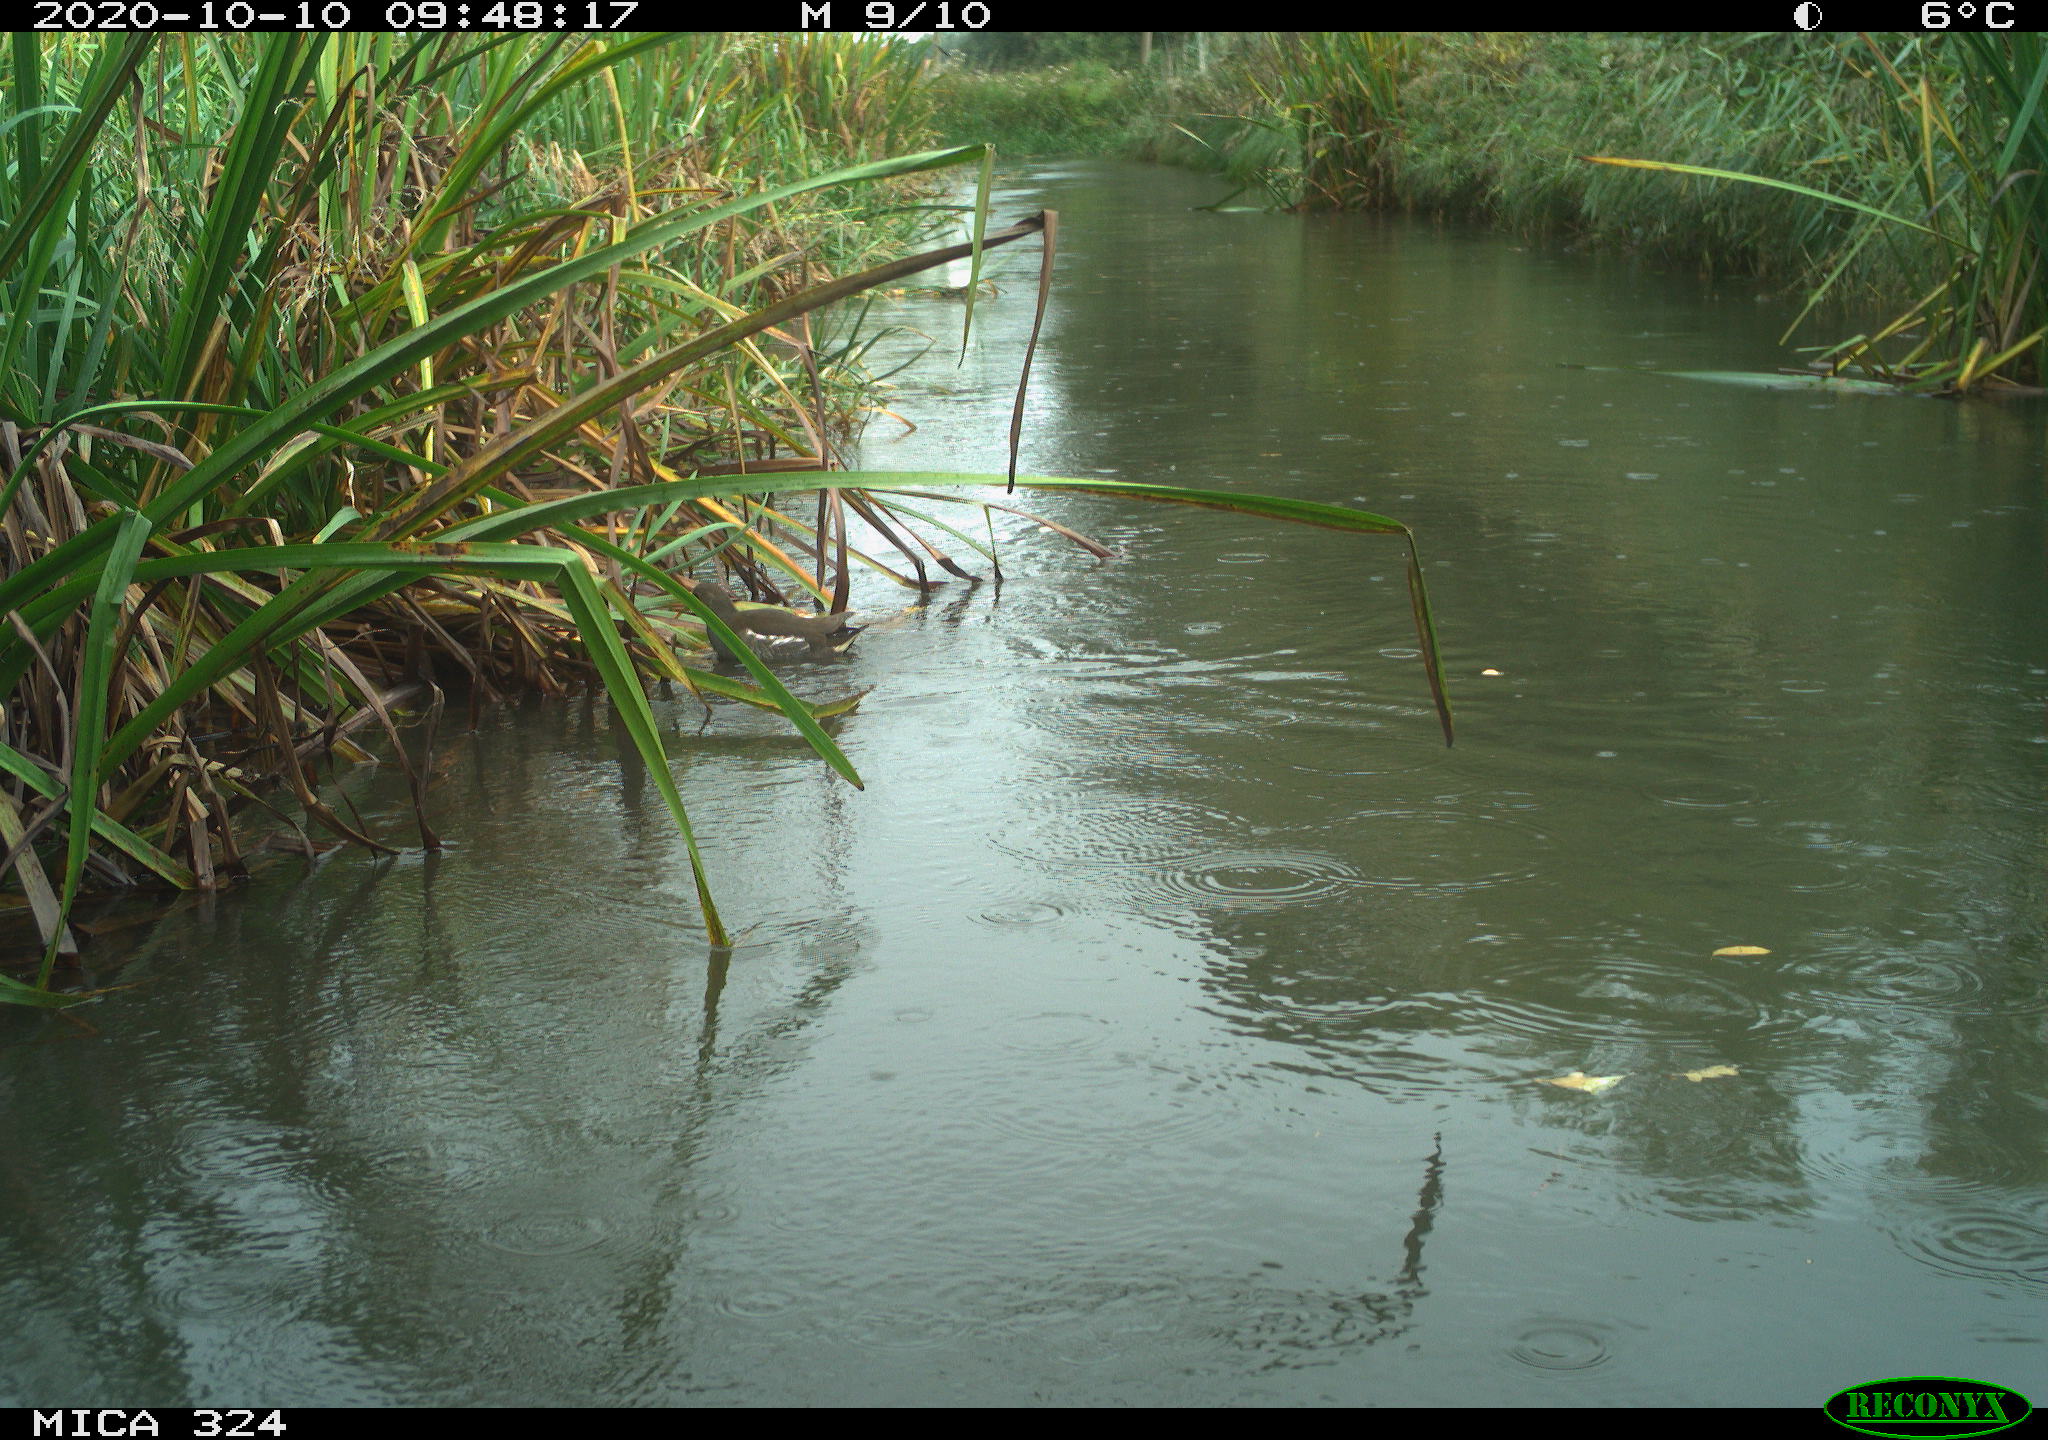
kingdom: Animalia
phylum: Chordata
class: Aves
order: Gruiformes
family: Rallidae
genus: Gallinula
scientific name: Gallinula chloropus
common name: Common moorhen
